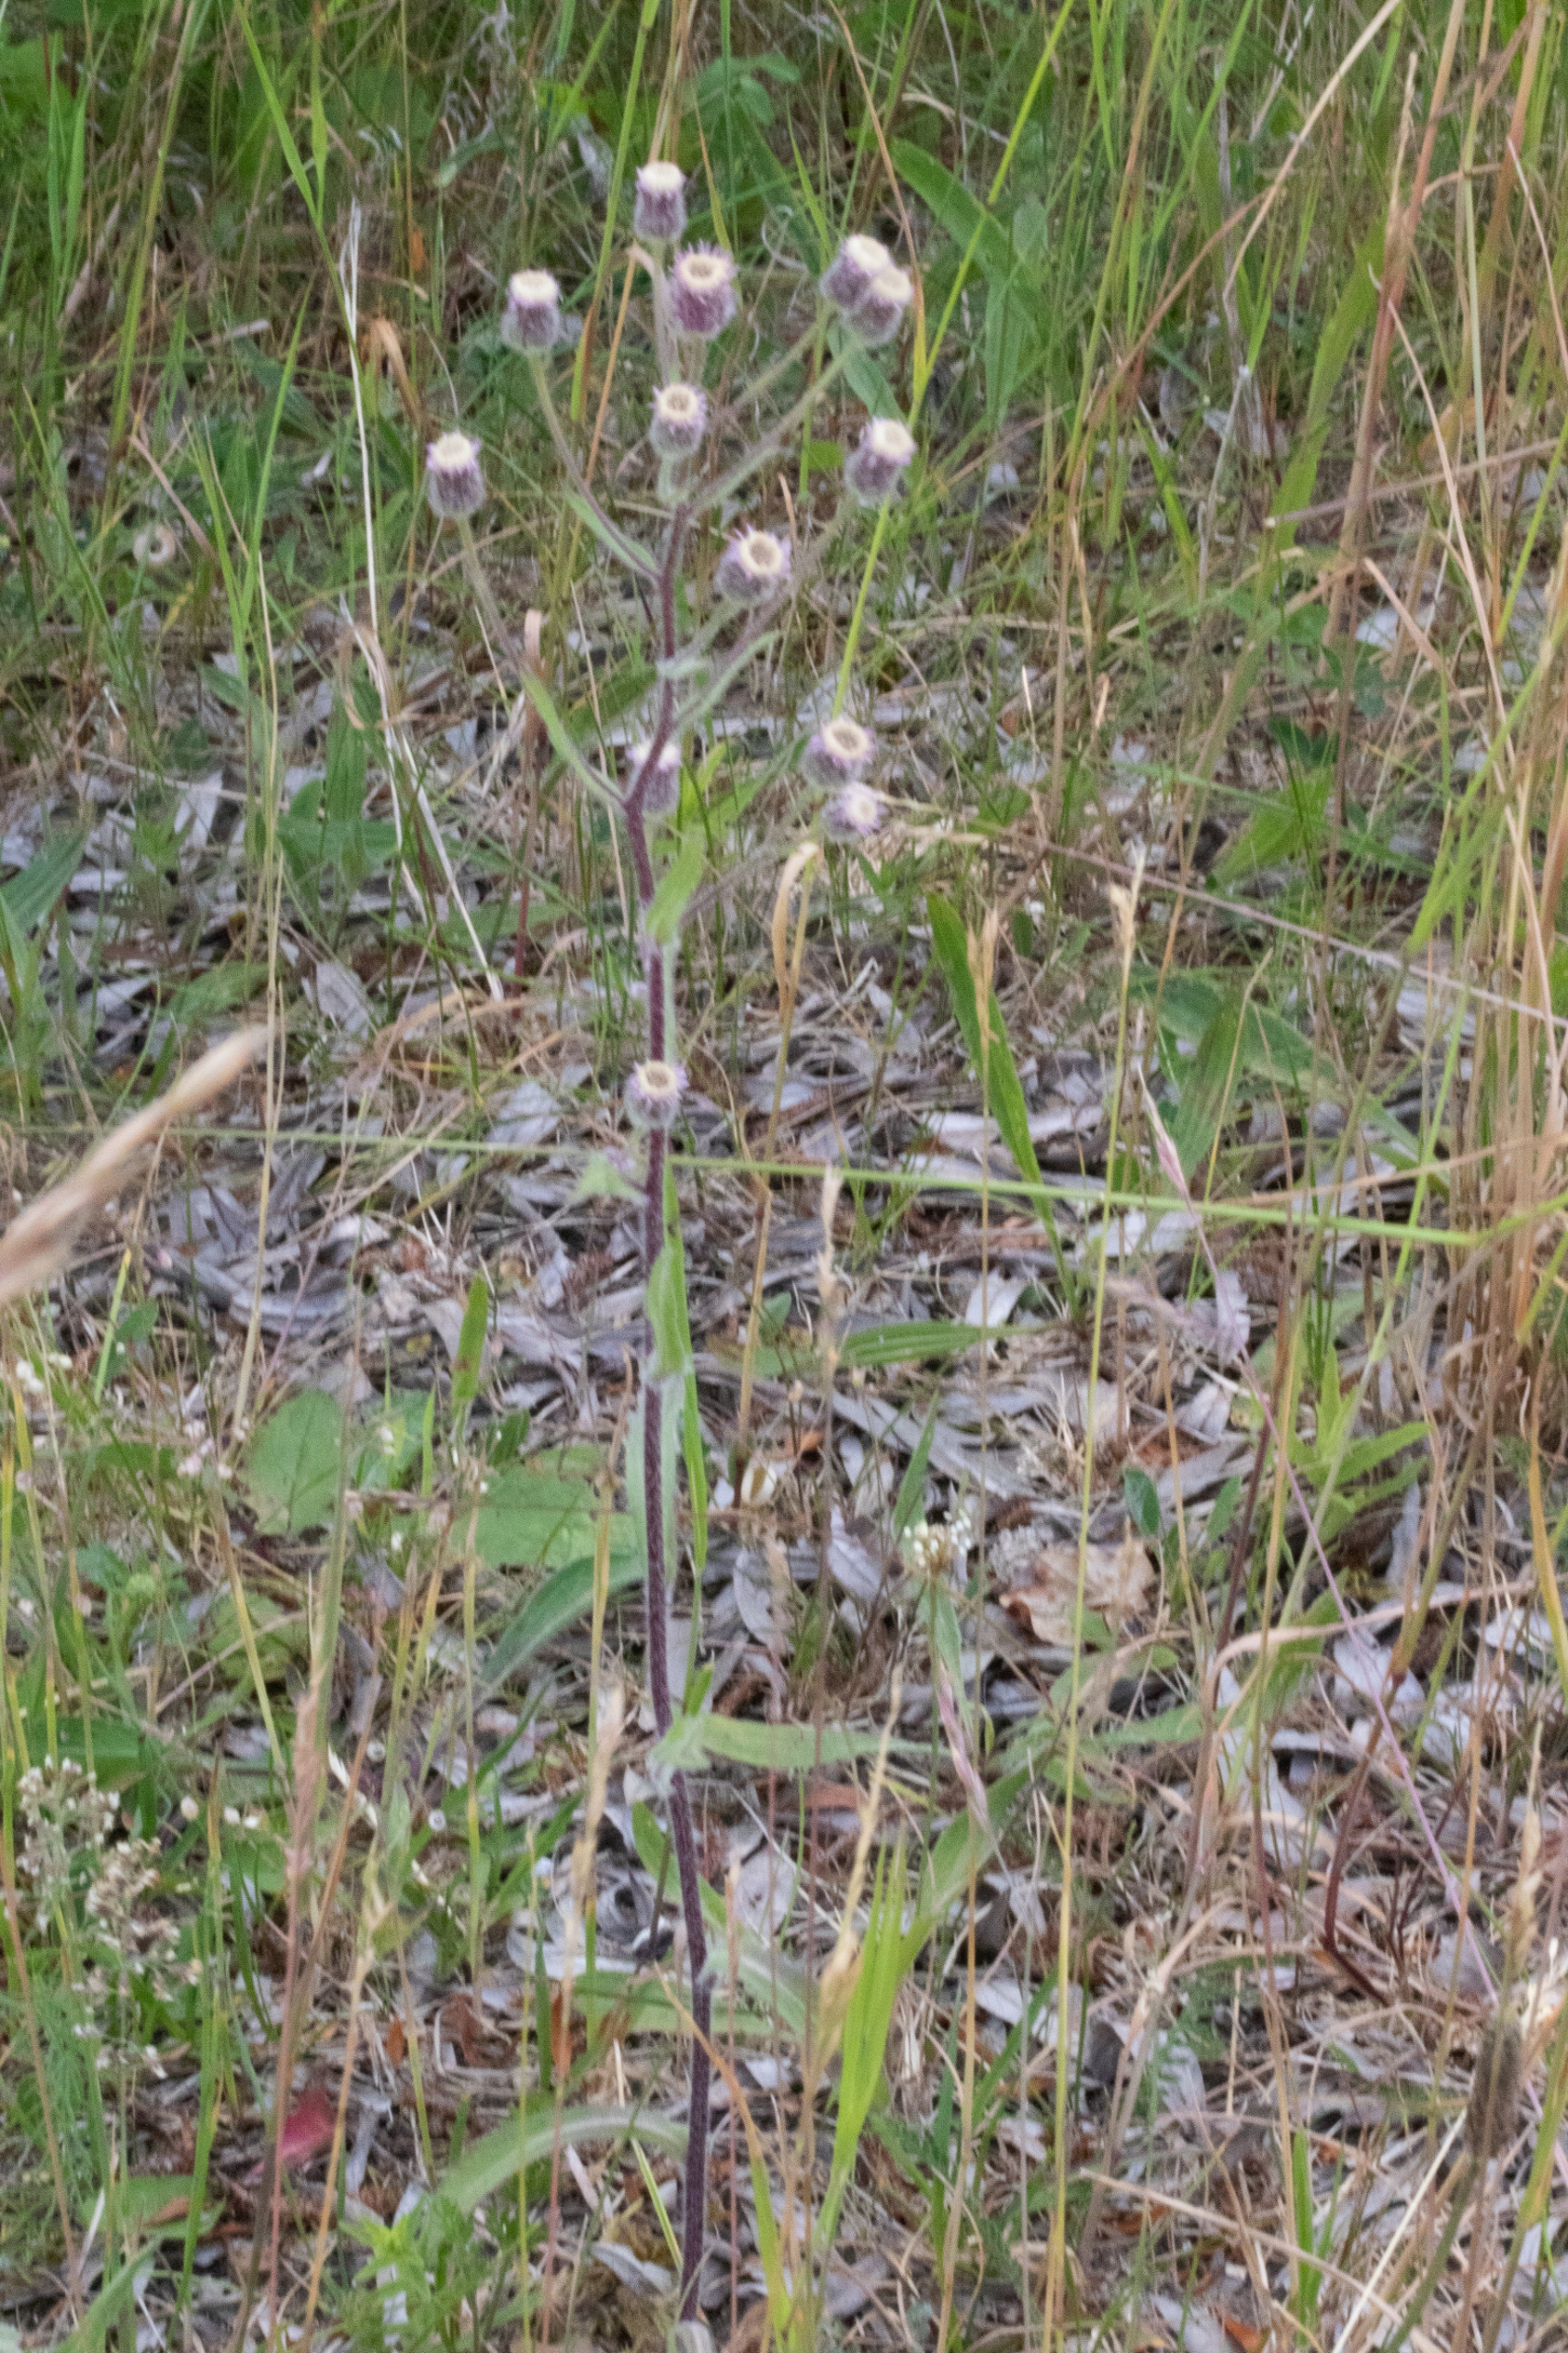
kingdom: Plantae
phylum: Tracheophyta
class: Magnoliopsida
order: Asterales
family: Asteraceae
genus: Erigeron
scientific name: Erigeron acris
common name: Bitter bakkestjerne
